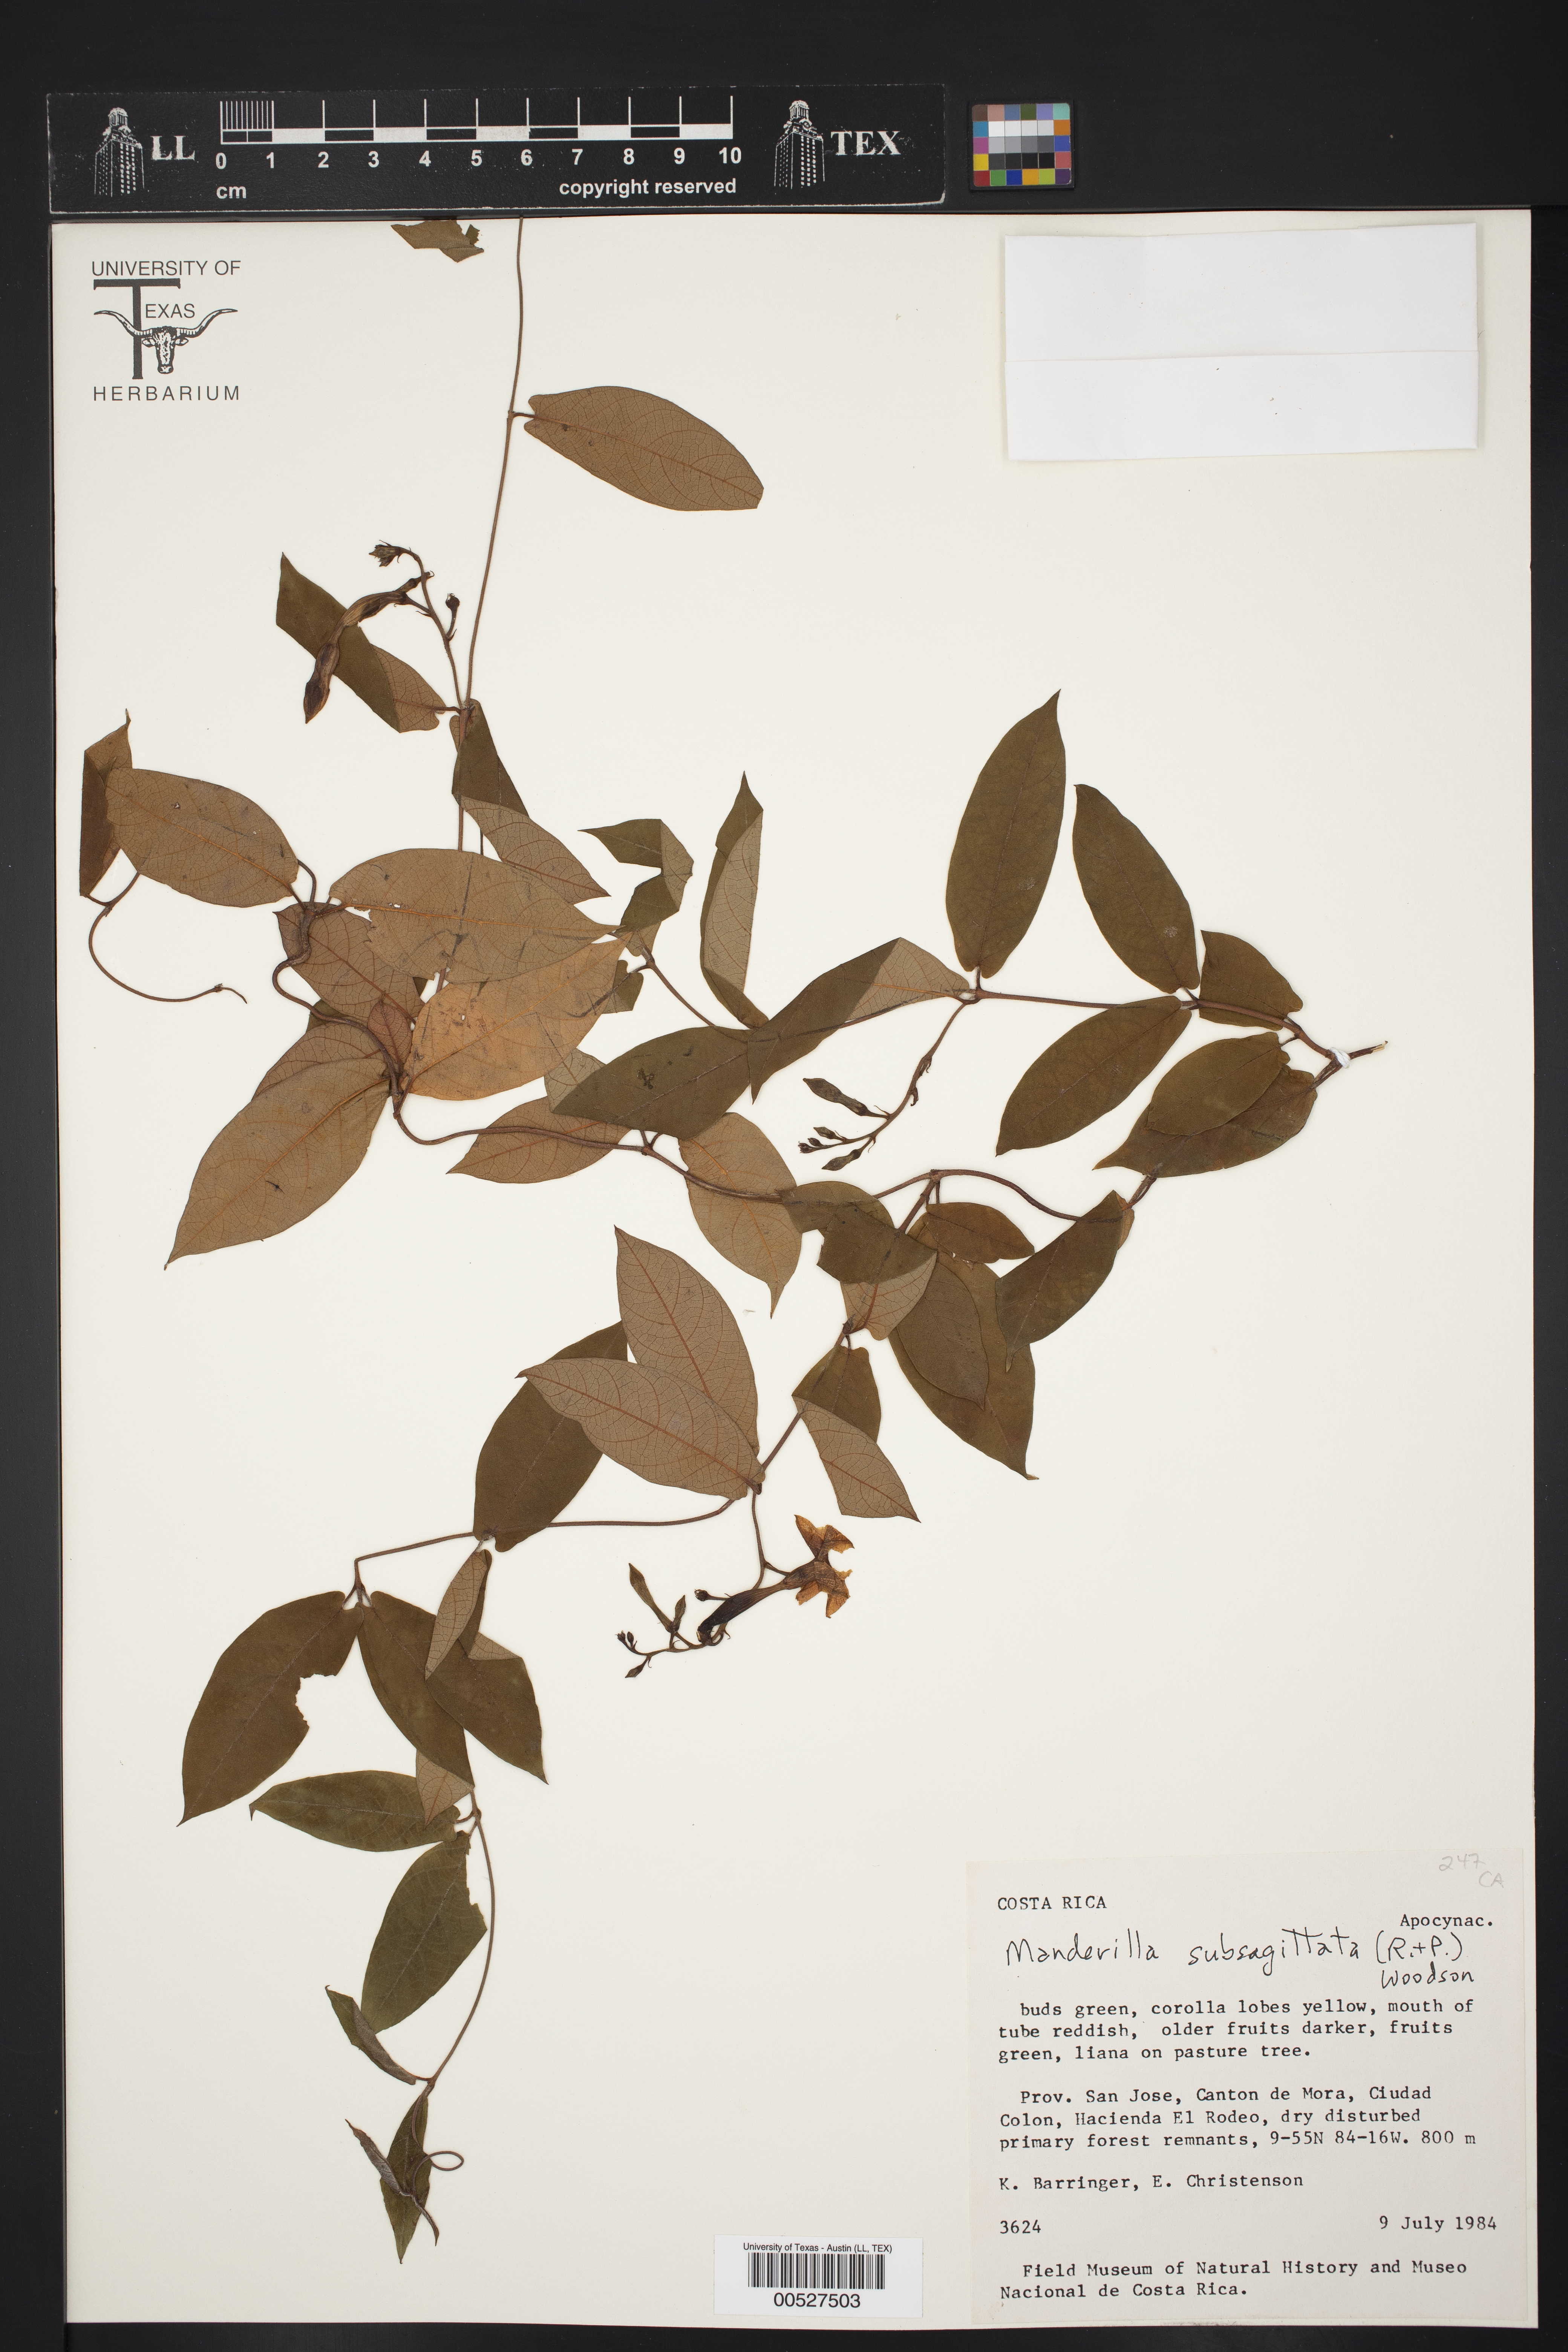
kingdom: Plantae
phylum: Tracheophyta
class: Magnoliopsida
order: Gentianales
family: Apocynaceae
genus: Mandevilla
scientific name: Mandevilla subsagittata
